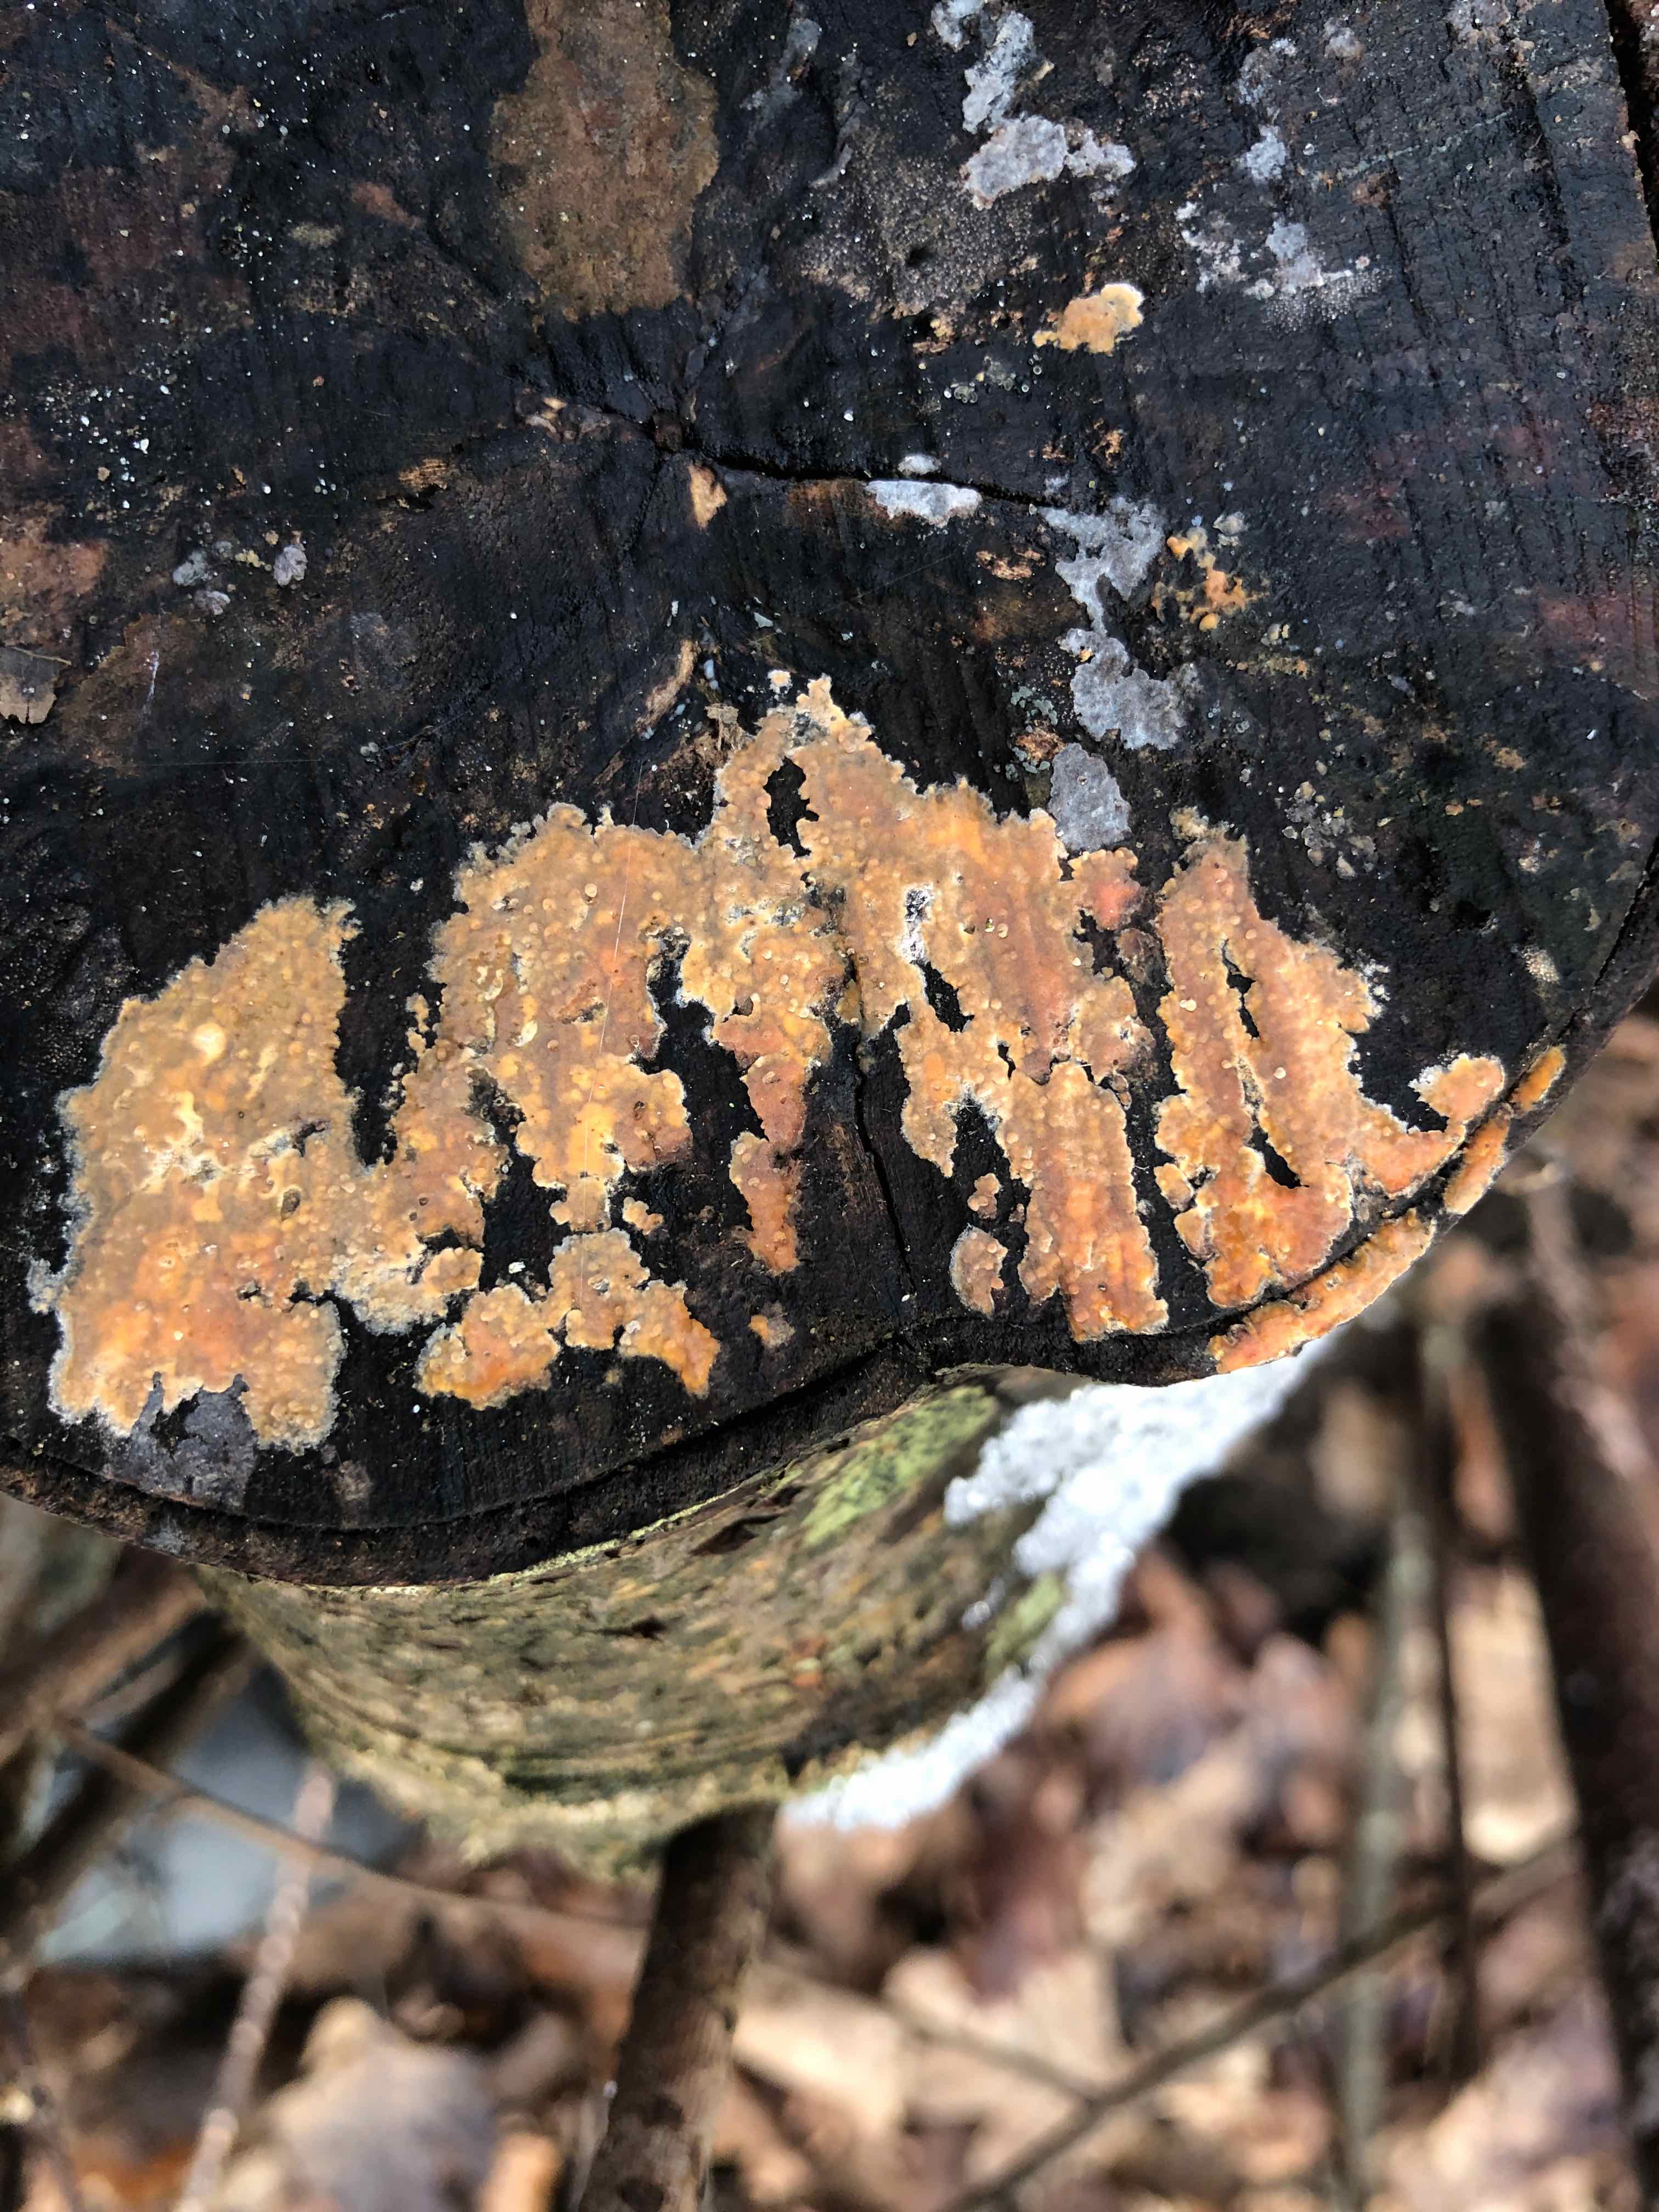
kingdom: Fungi
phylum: Basidiomycota
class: Agaricomycetes
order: Russulales
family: Peniophoraceae
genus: Peniophora
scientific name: Peniophora incarnata
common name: laksefarvet voksskind
